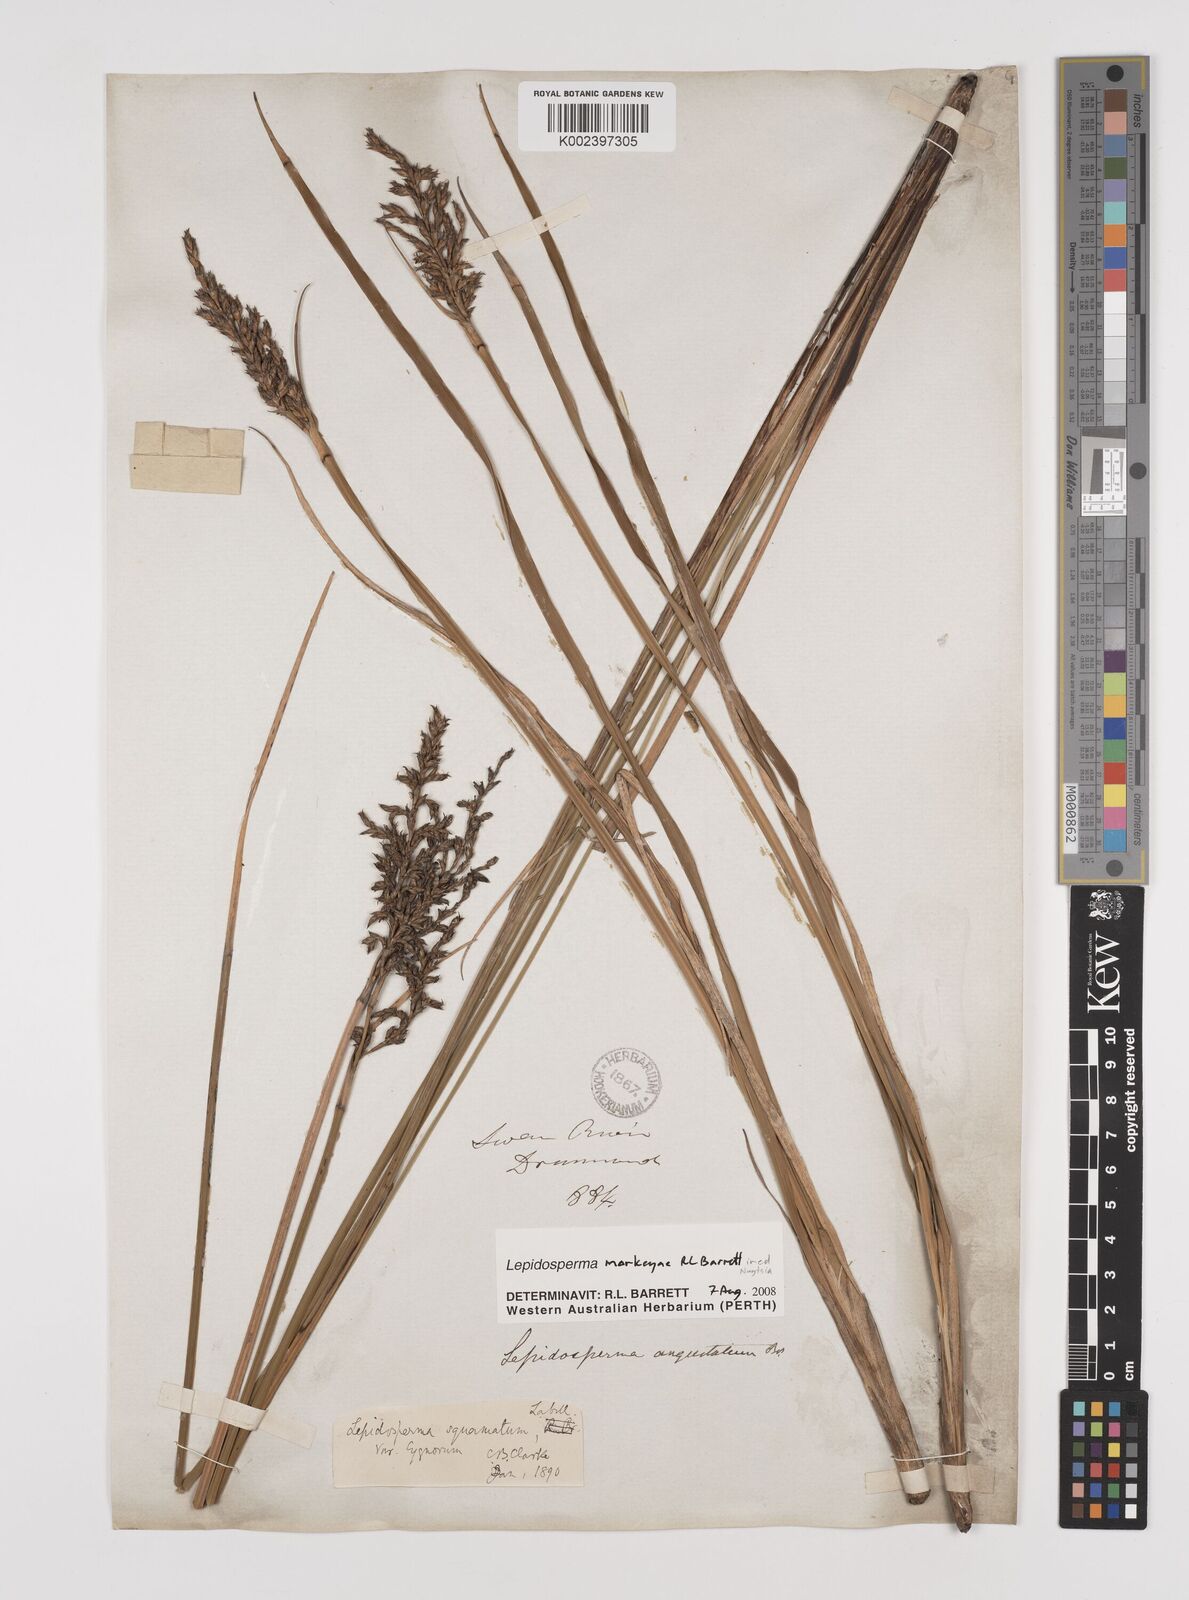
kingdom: Plantae
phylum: Tracheophyta
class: Liliopsida
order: Poales
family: Cyperaceae
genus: Lepidosperma
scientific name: Lepidosperma
